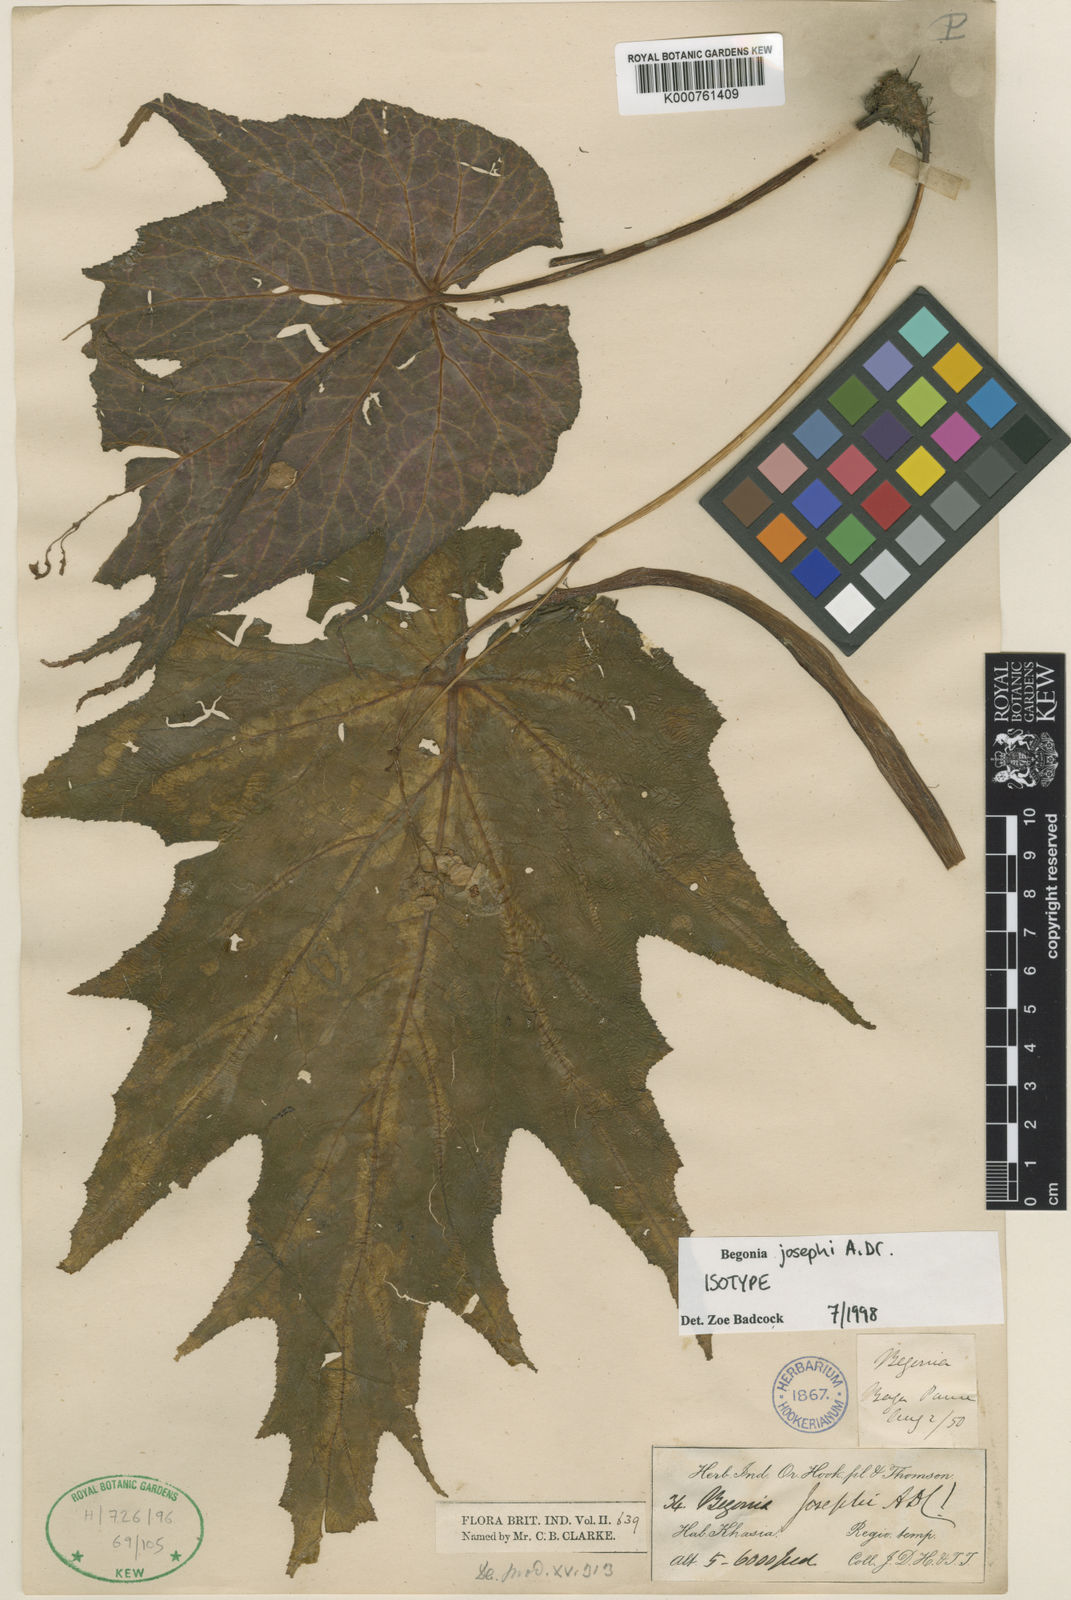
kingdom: Plantae
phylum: Tracheophyta
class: Magnoliopsida
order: Cucurbitales
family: Begoniaceae
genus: Begonia
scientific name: Begonia josephi
